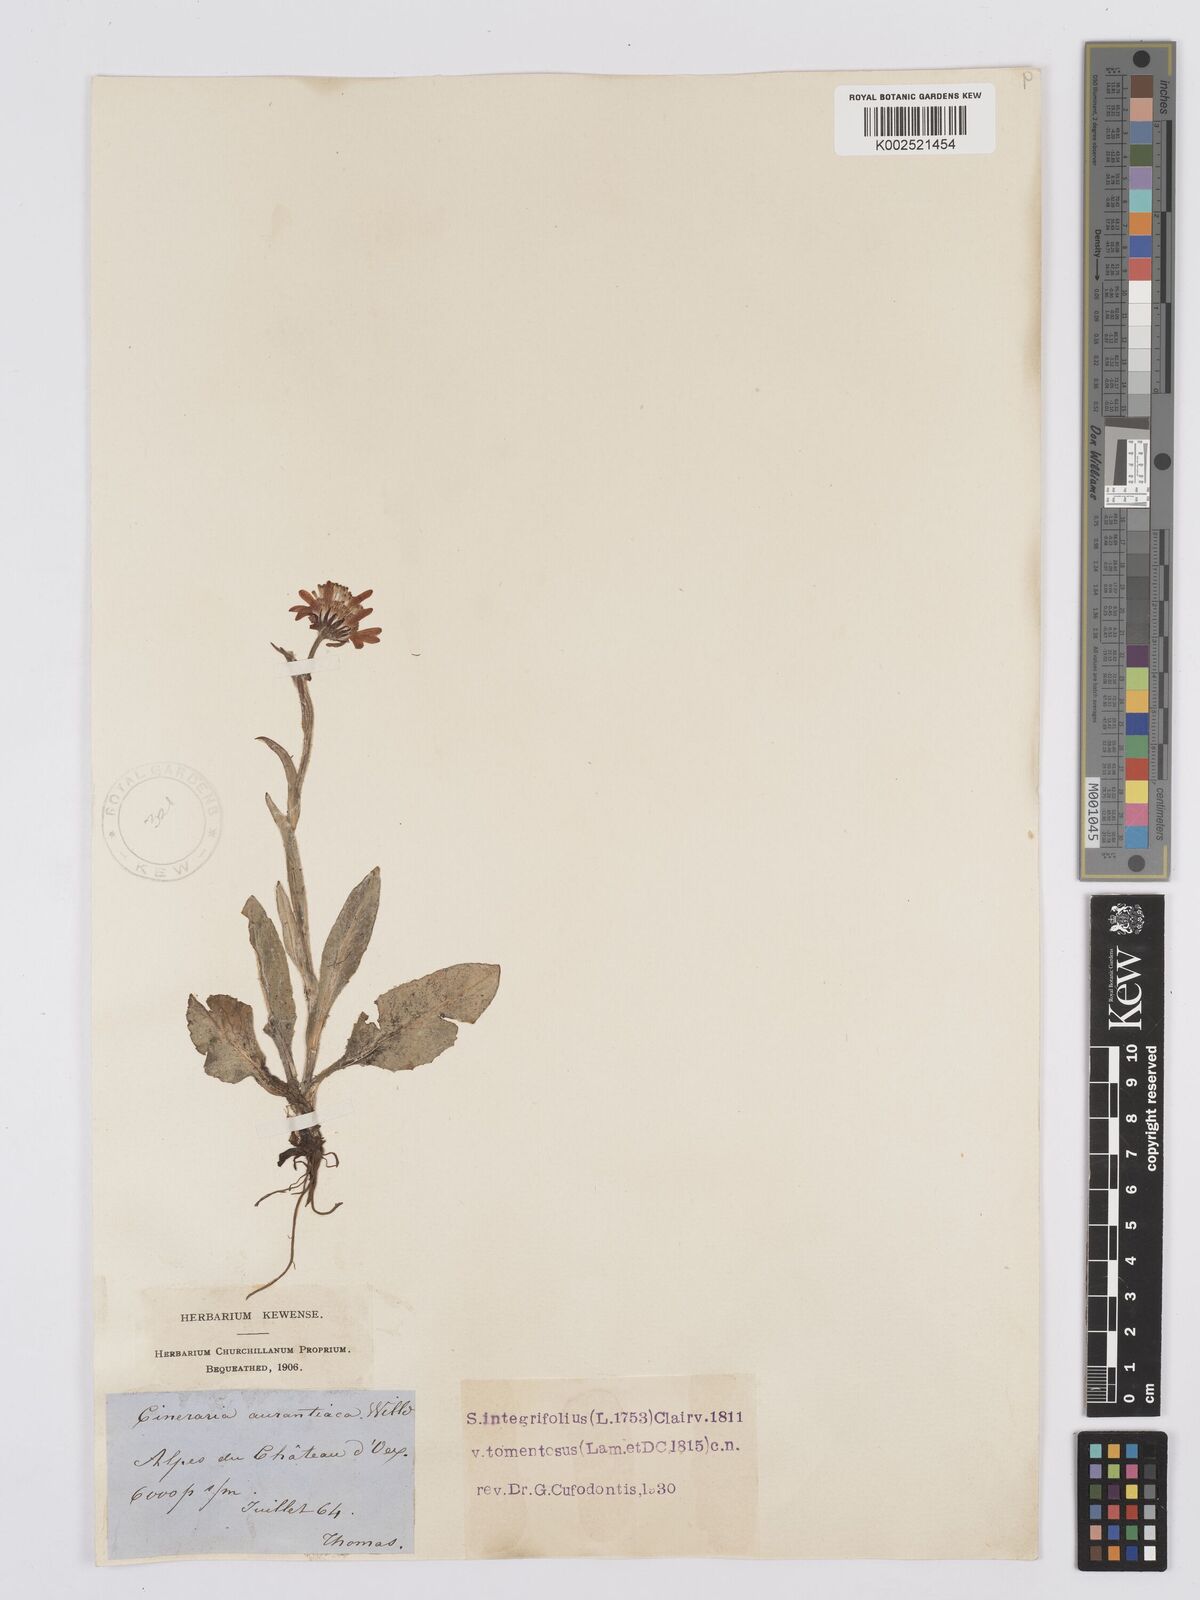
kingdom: Plantae
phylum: Tracheophyta
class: Magnoliopsida
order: Asterales
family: Asteraceae
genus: Tephroseris
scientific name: Tephroseris integrifolia
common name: Field fleawort
